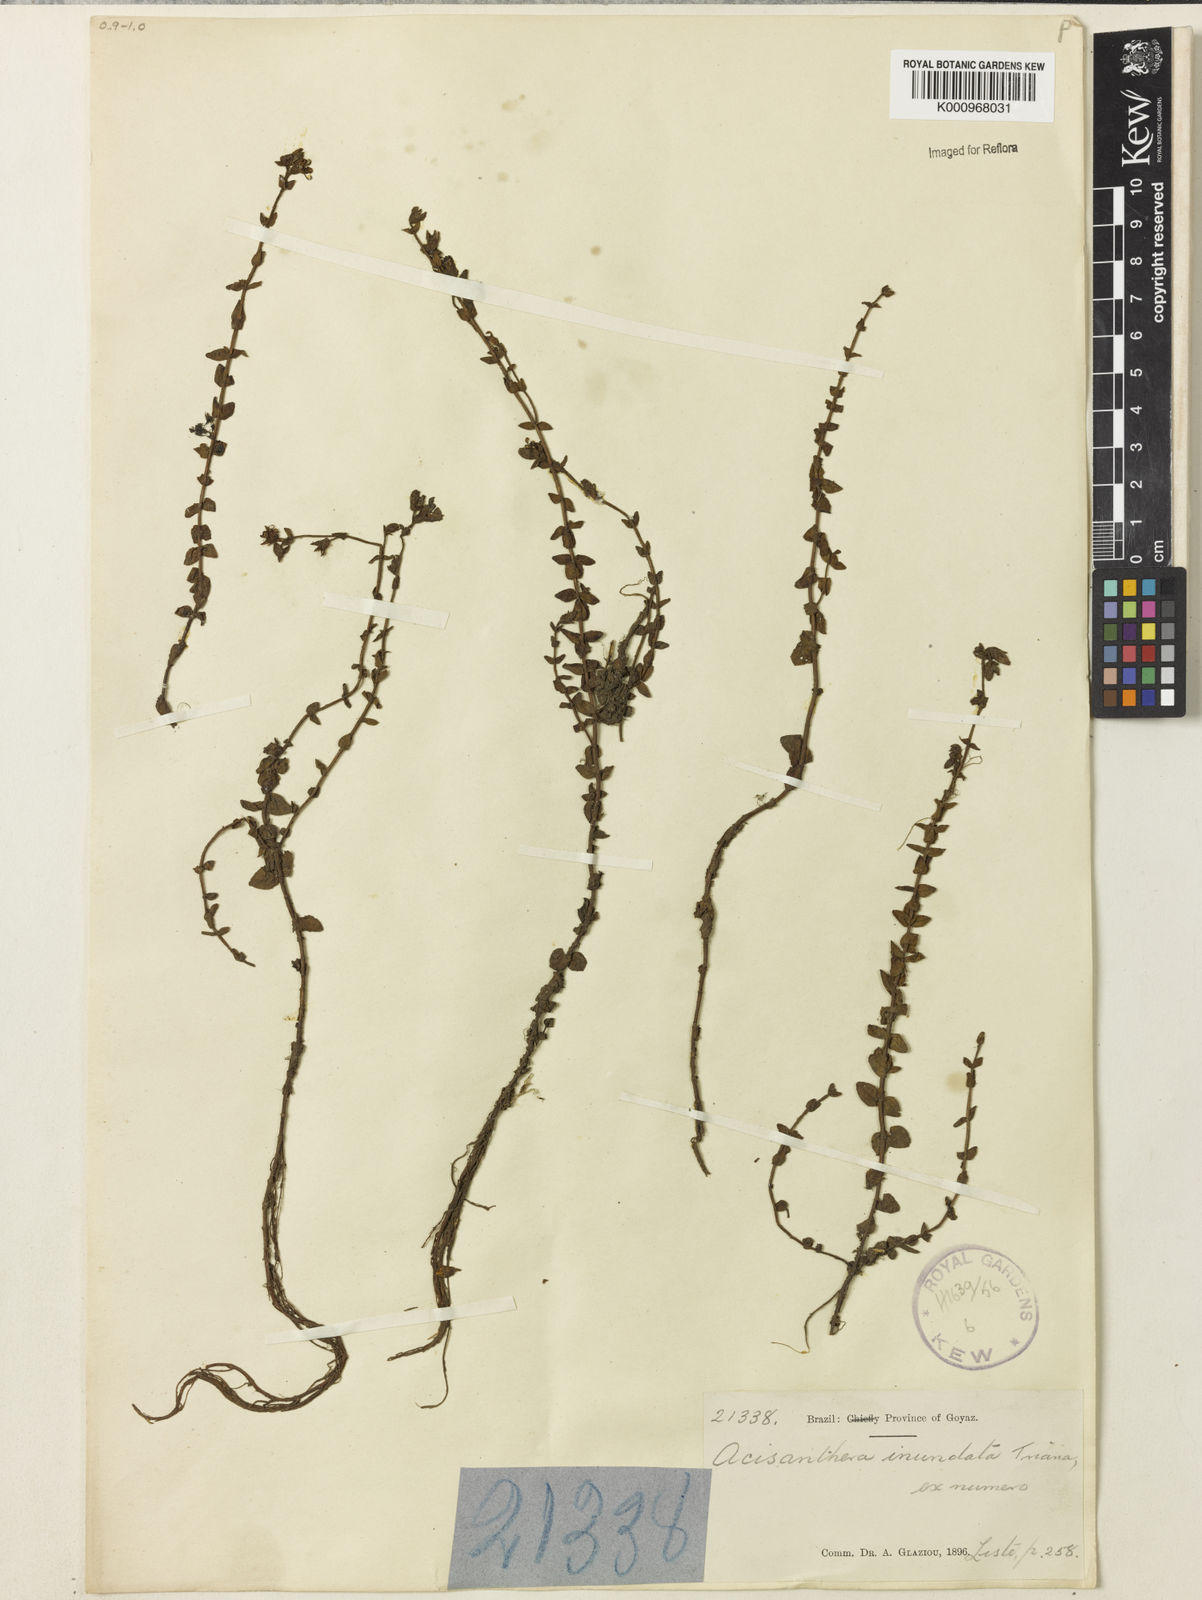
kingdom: Plantae
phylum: Tracheophyta
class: Magnoliopsida
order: Myrtales
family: Melastomataceae
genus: Noterophila
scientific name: Noterophila inundata
